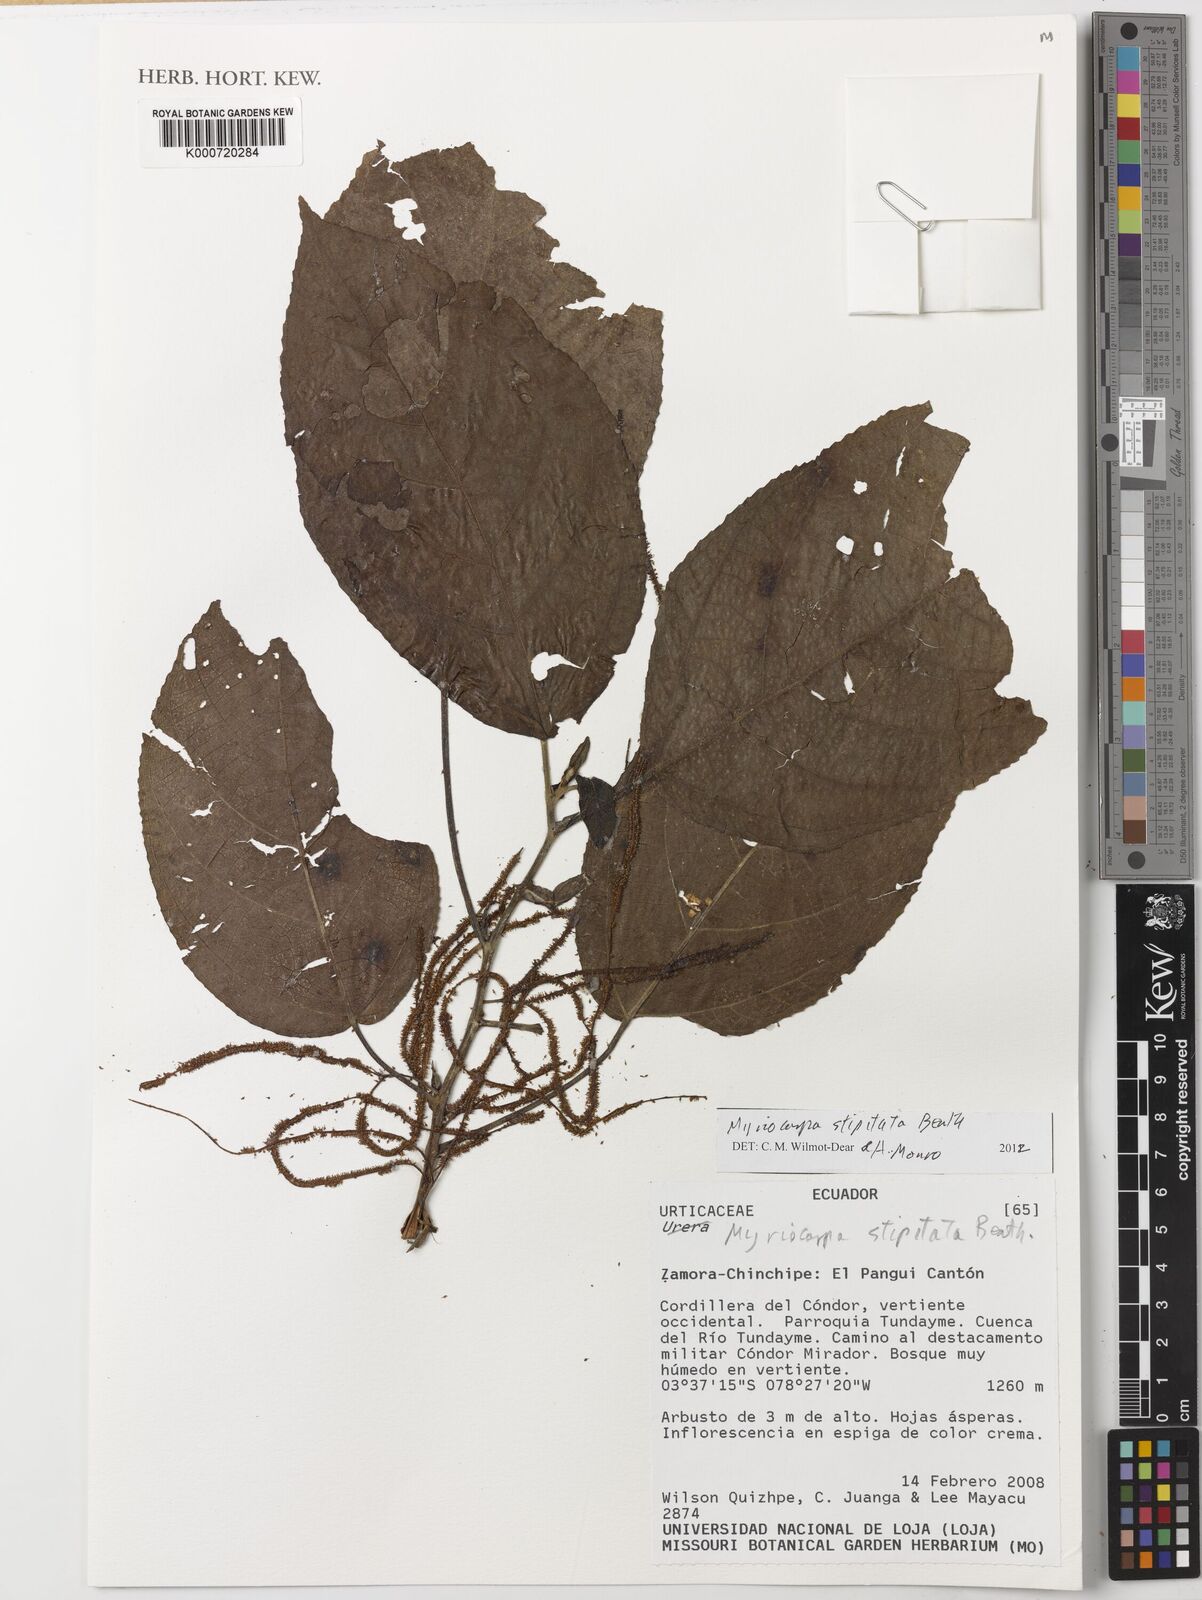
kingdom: Plantae
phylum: Tracheophyta
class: Magnoliopsida
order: Rosales
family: Urticaceae
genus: Myriocarpa
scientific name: Myriocarpa stipitata
